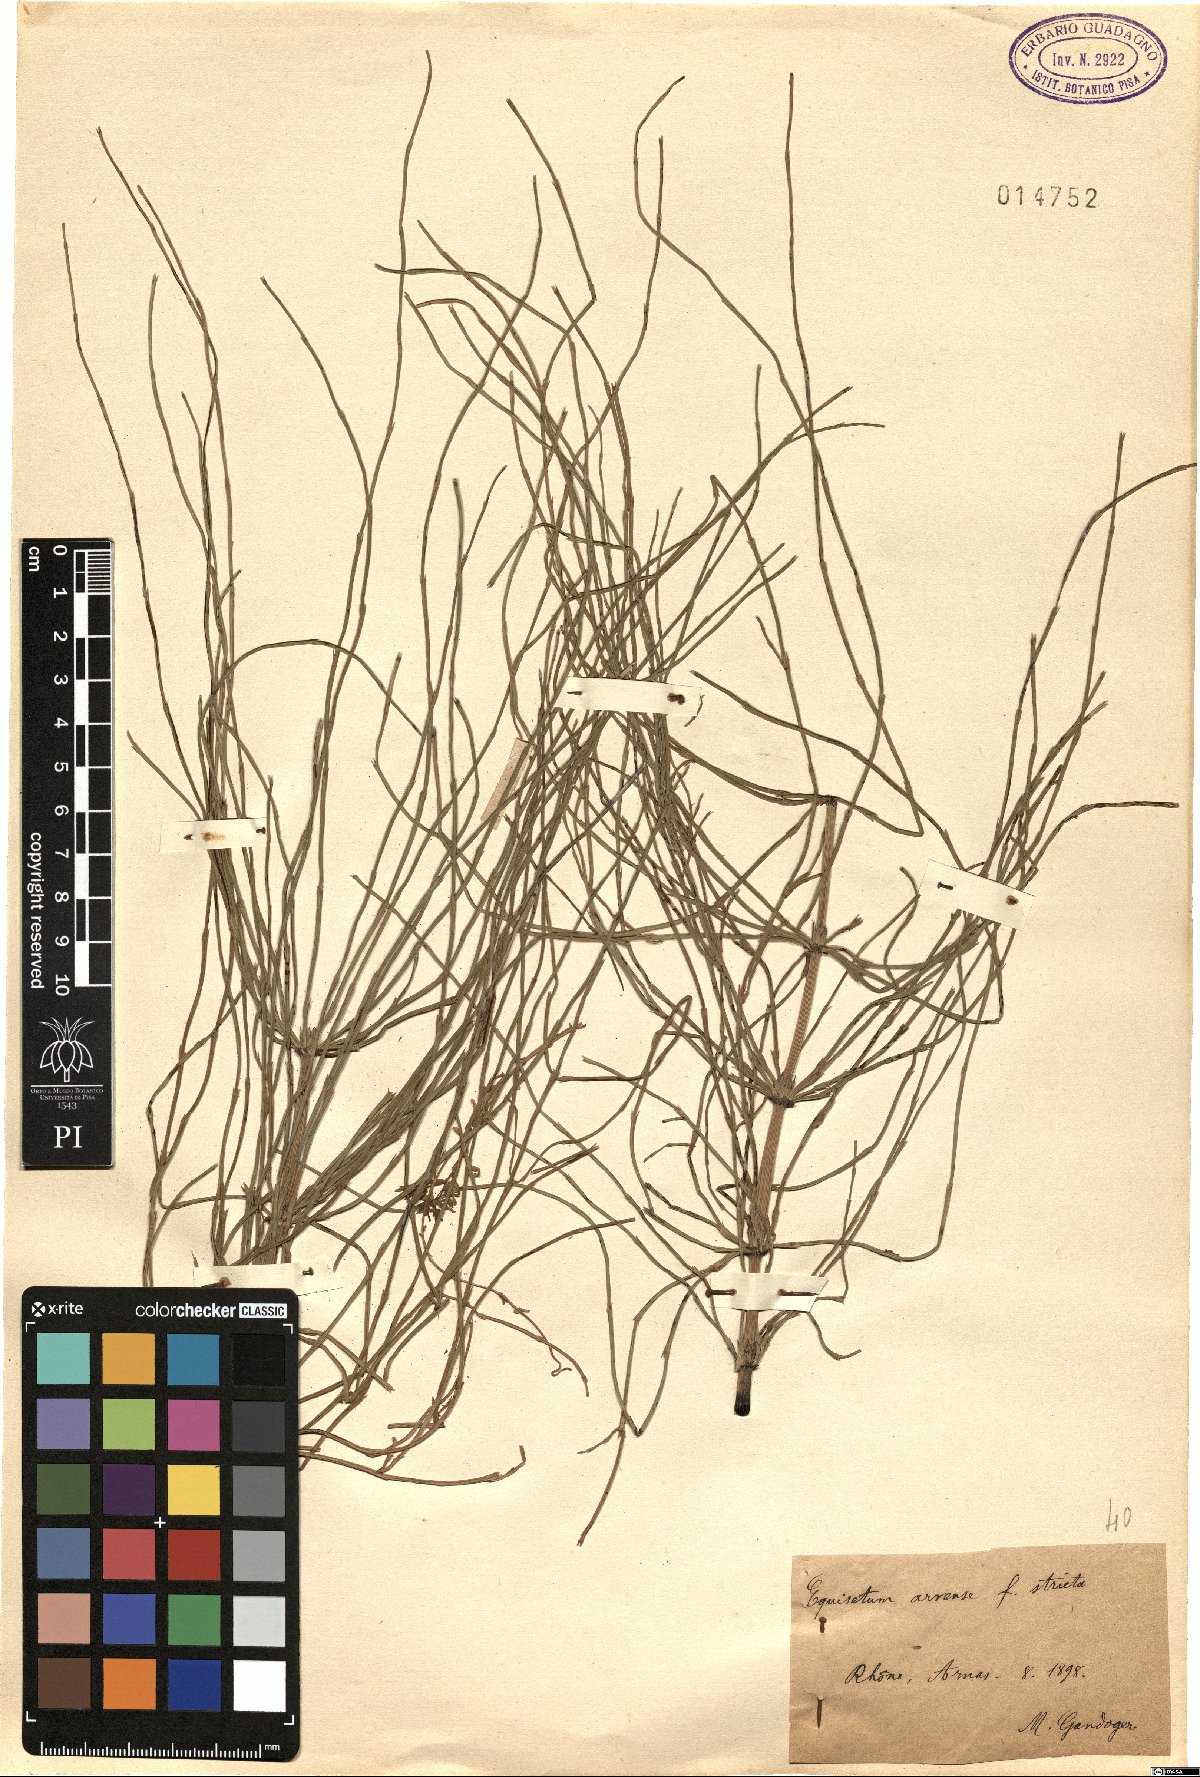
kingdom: Plantae
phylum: Tracheophyta
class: Polypodiopsida
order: Equisetales
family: Equisetaceae
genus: Equisetum
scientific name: Equisetum arvense
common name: Field horsetail
